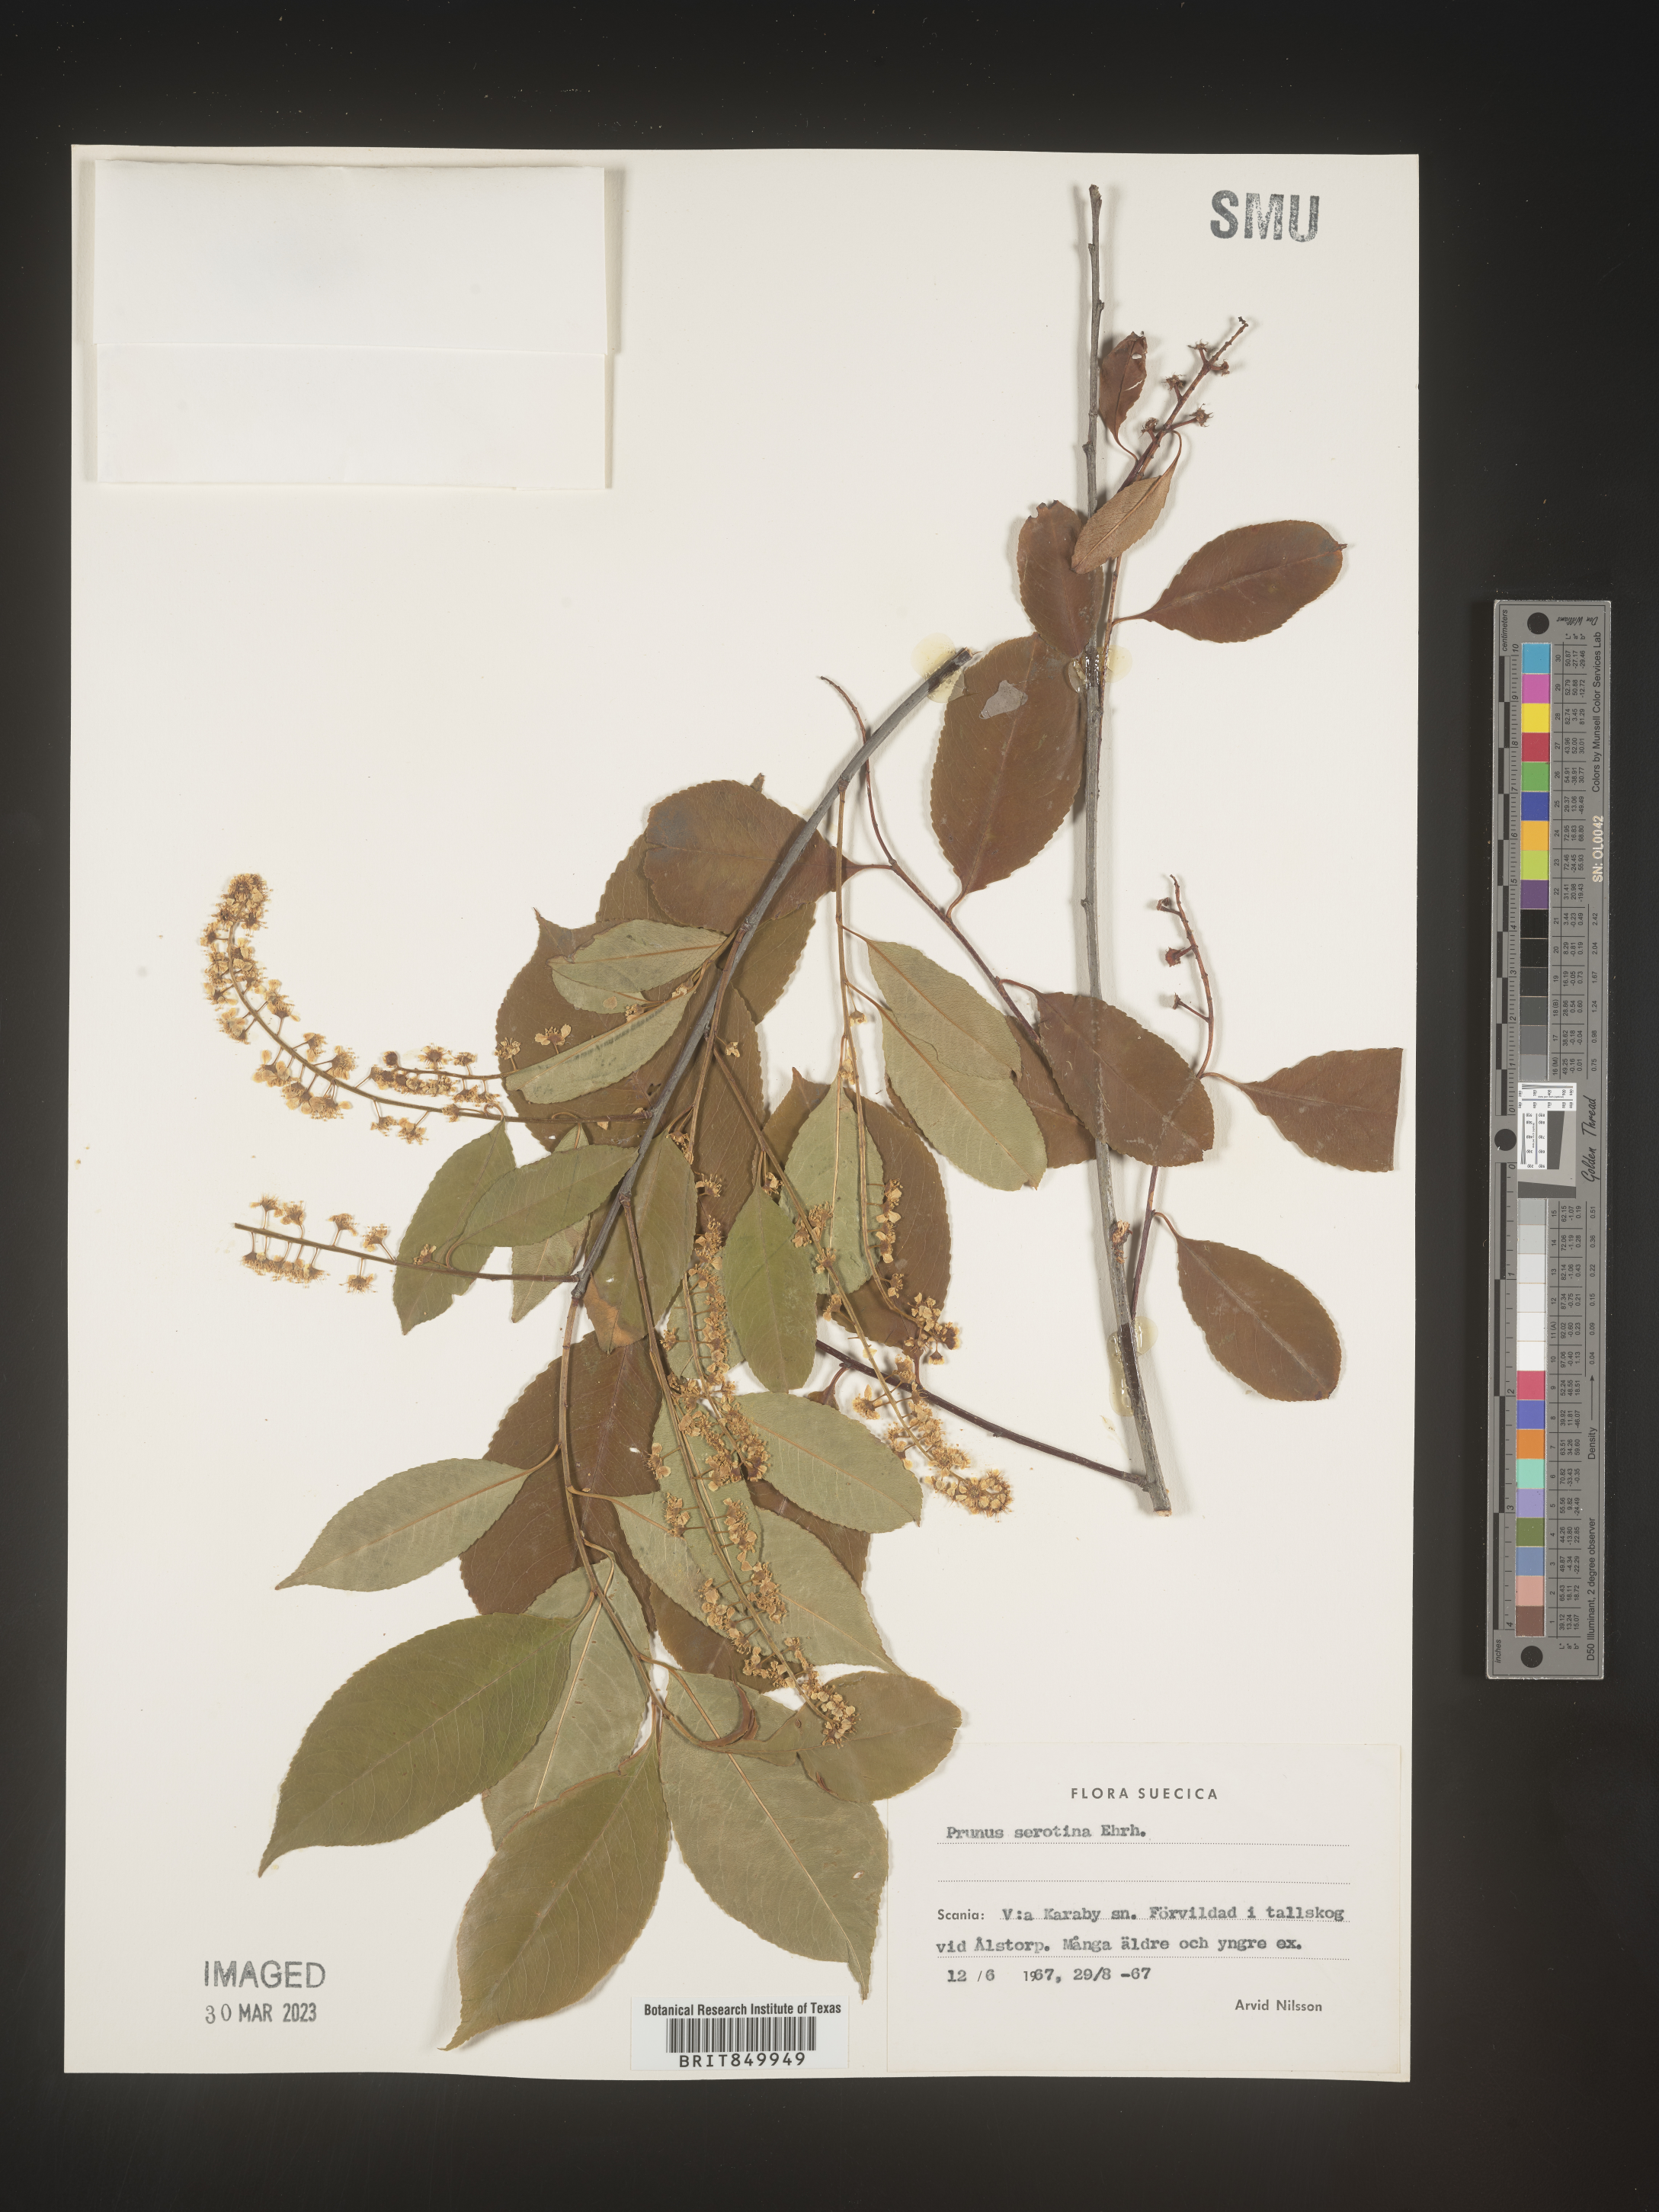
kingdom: Plantae
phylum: Tracheophyta
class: Magnoliopsida
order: Rosales
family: Rosaceae
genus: Prunus
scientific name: Prunus
